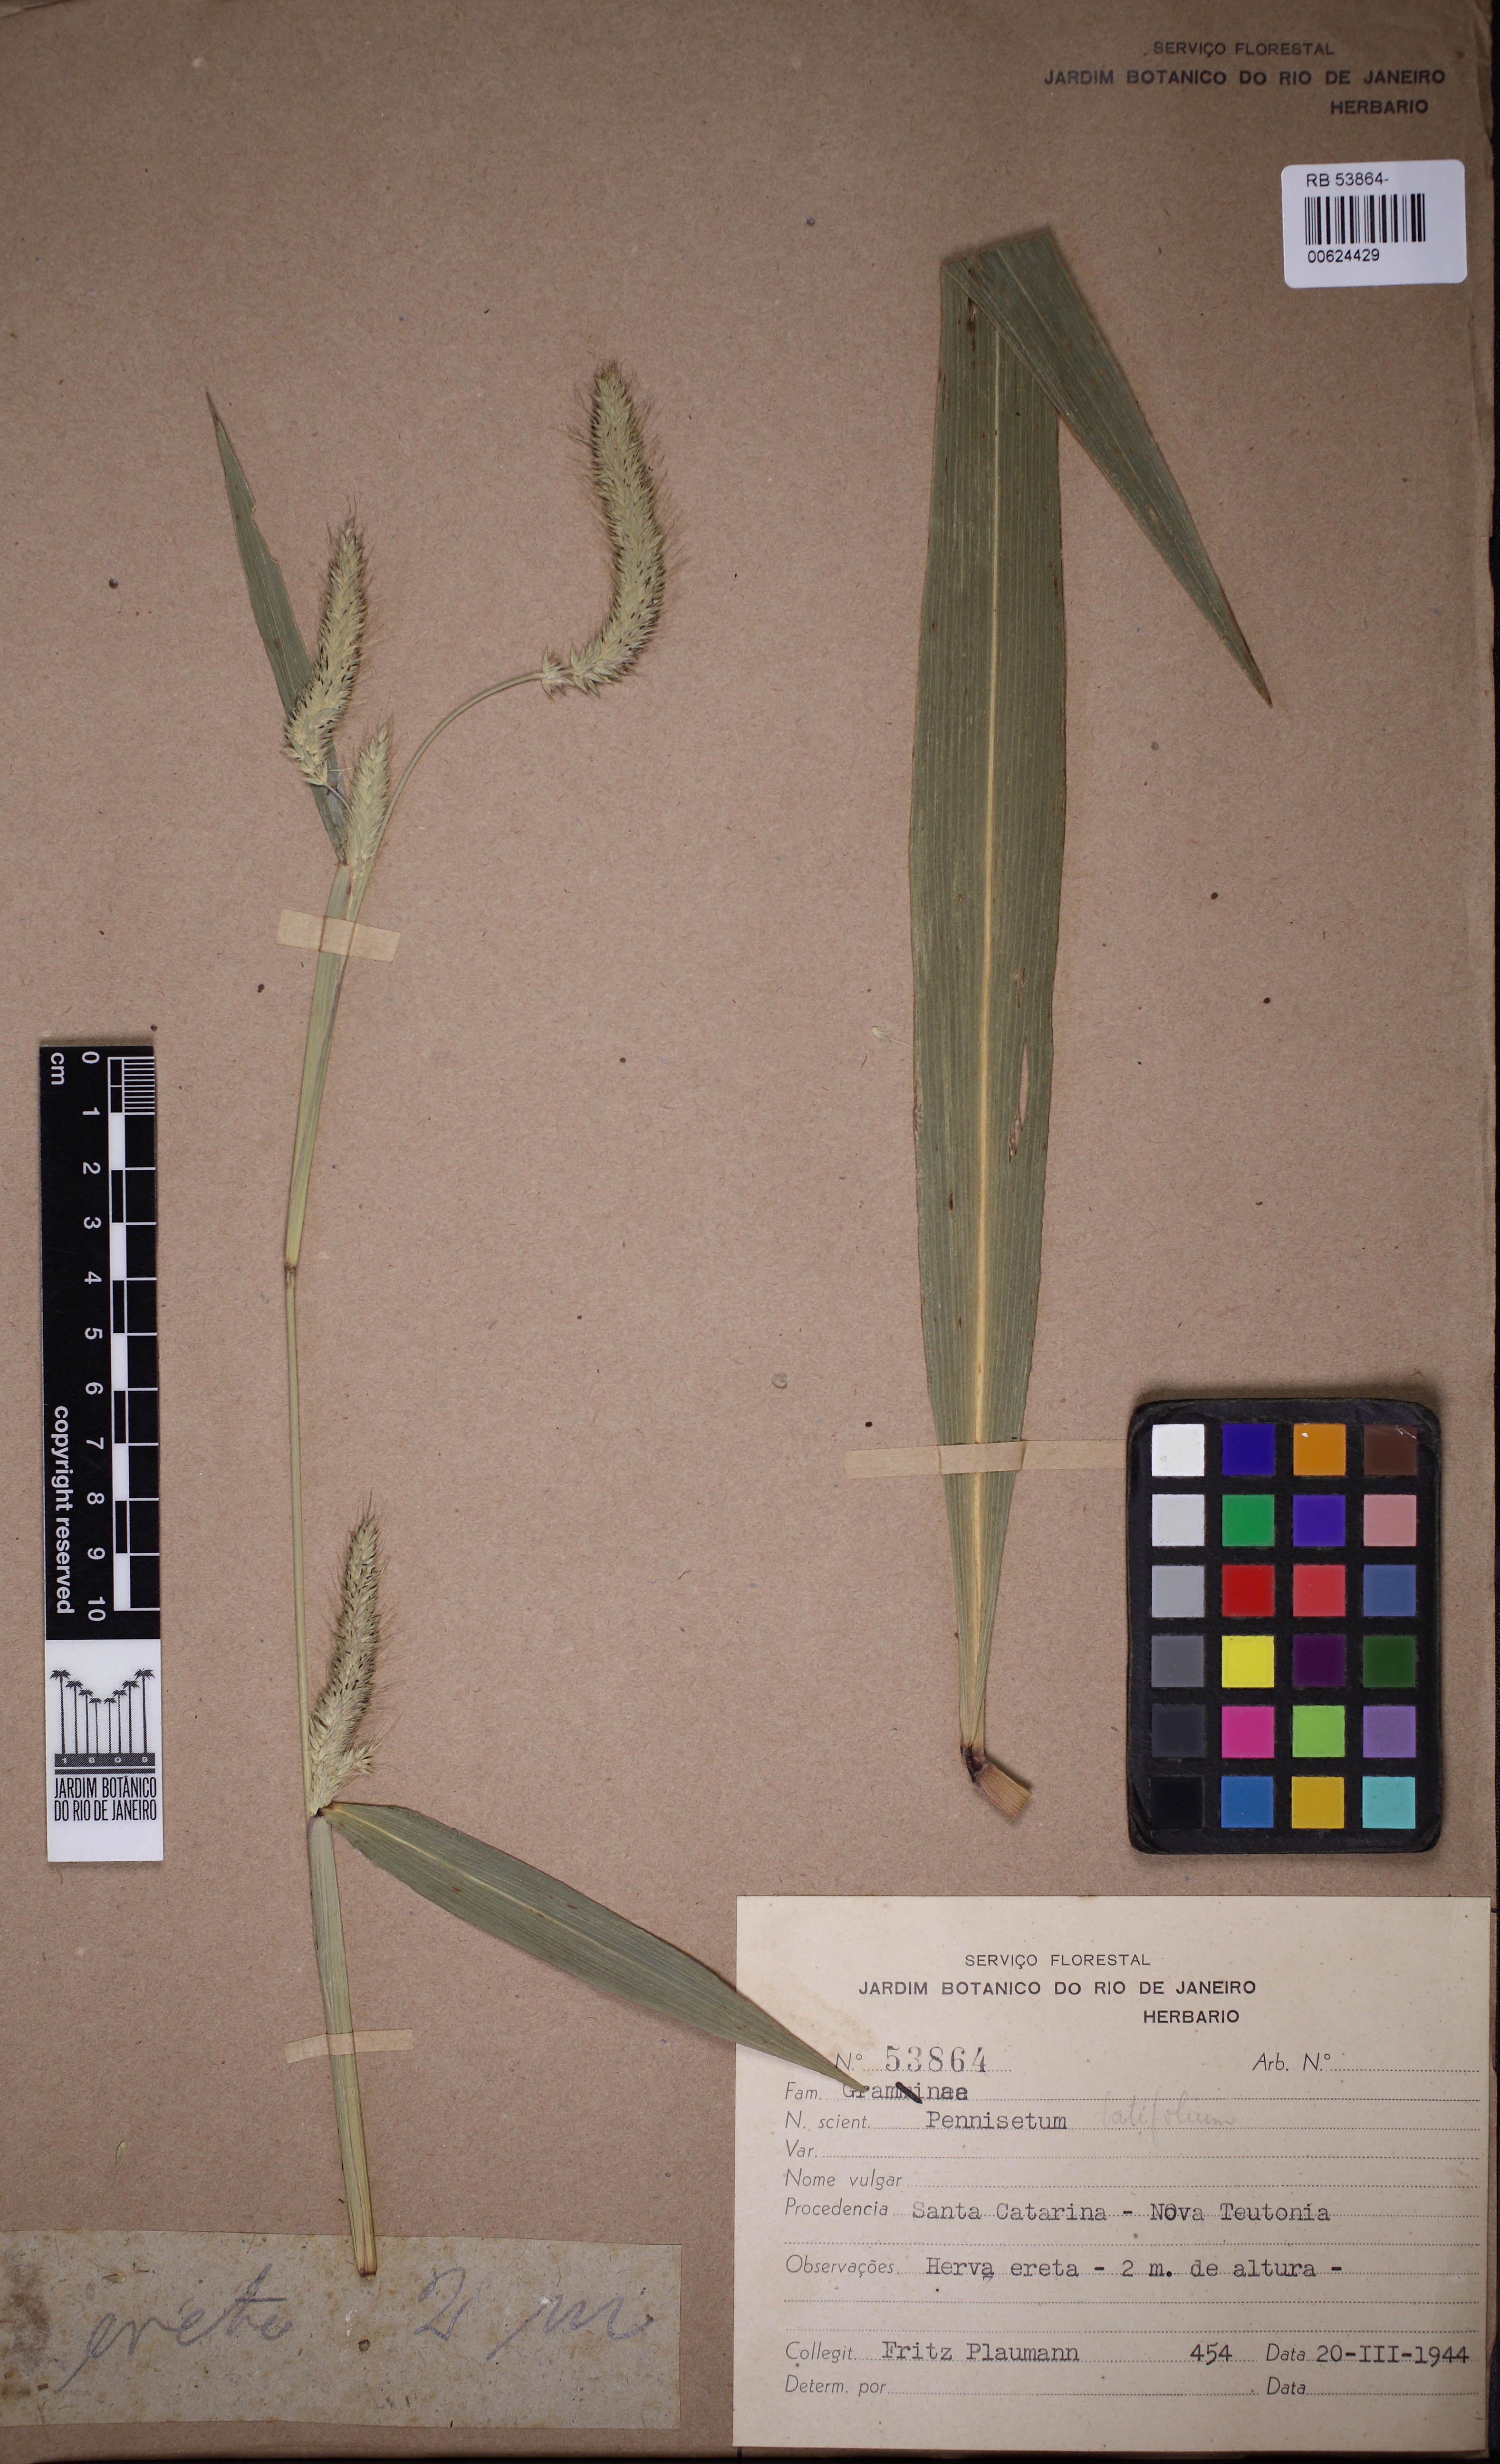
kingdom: Plantae
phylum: Tracheophyta
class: Liliopsida
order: Poales
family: Poaceae
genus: Cenchrus
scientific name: Cenchrus latifolius
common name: Sandbur
